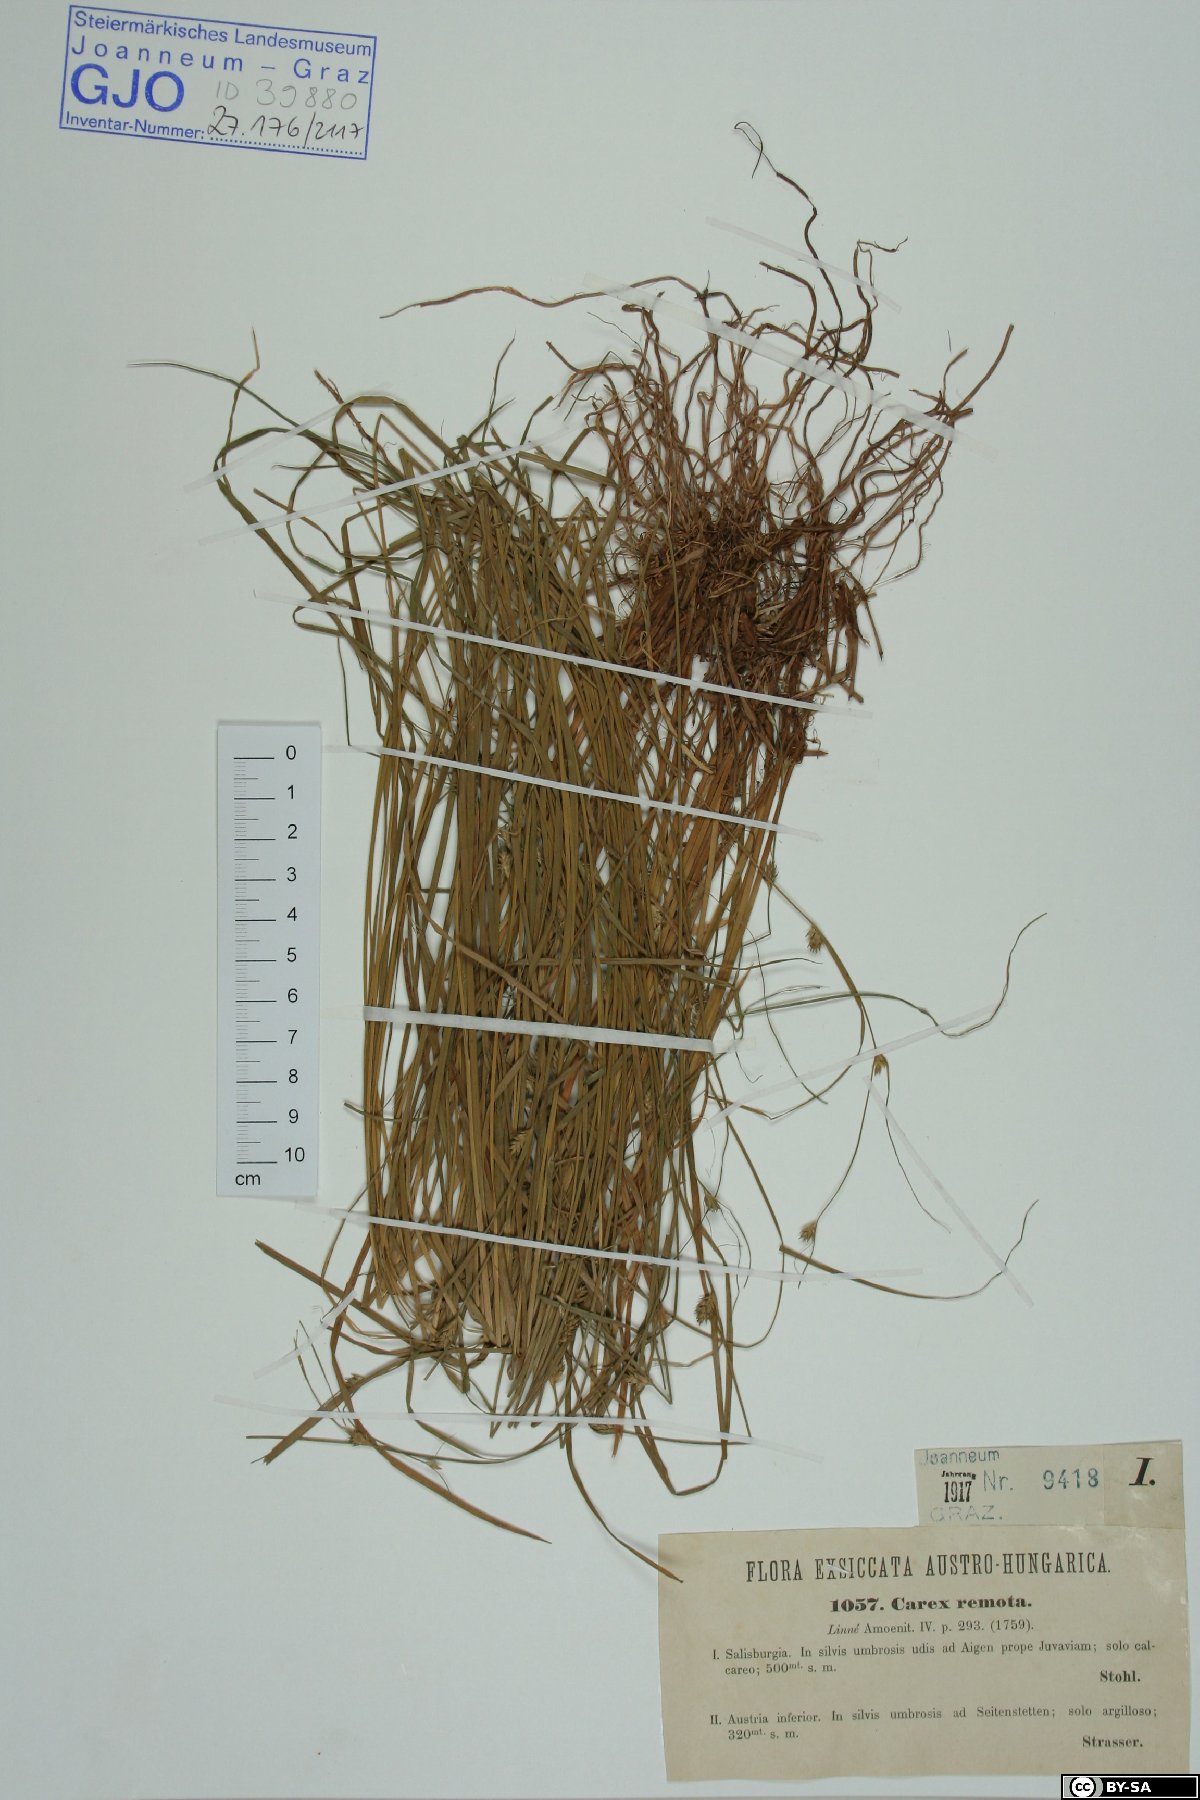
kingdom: Plantae
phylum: Tracheophyta
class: Liliopsida
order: Poales
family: Cyperaceae
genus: Carex
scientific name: Carex remota
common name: Remote sedge
